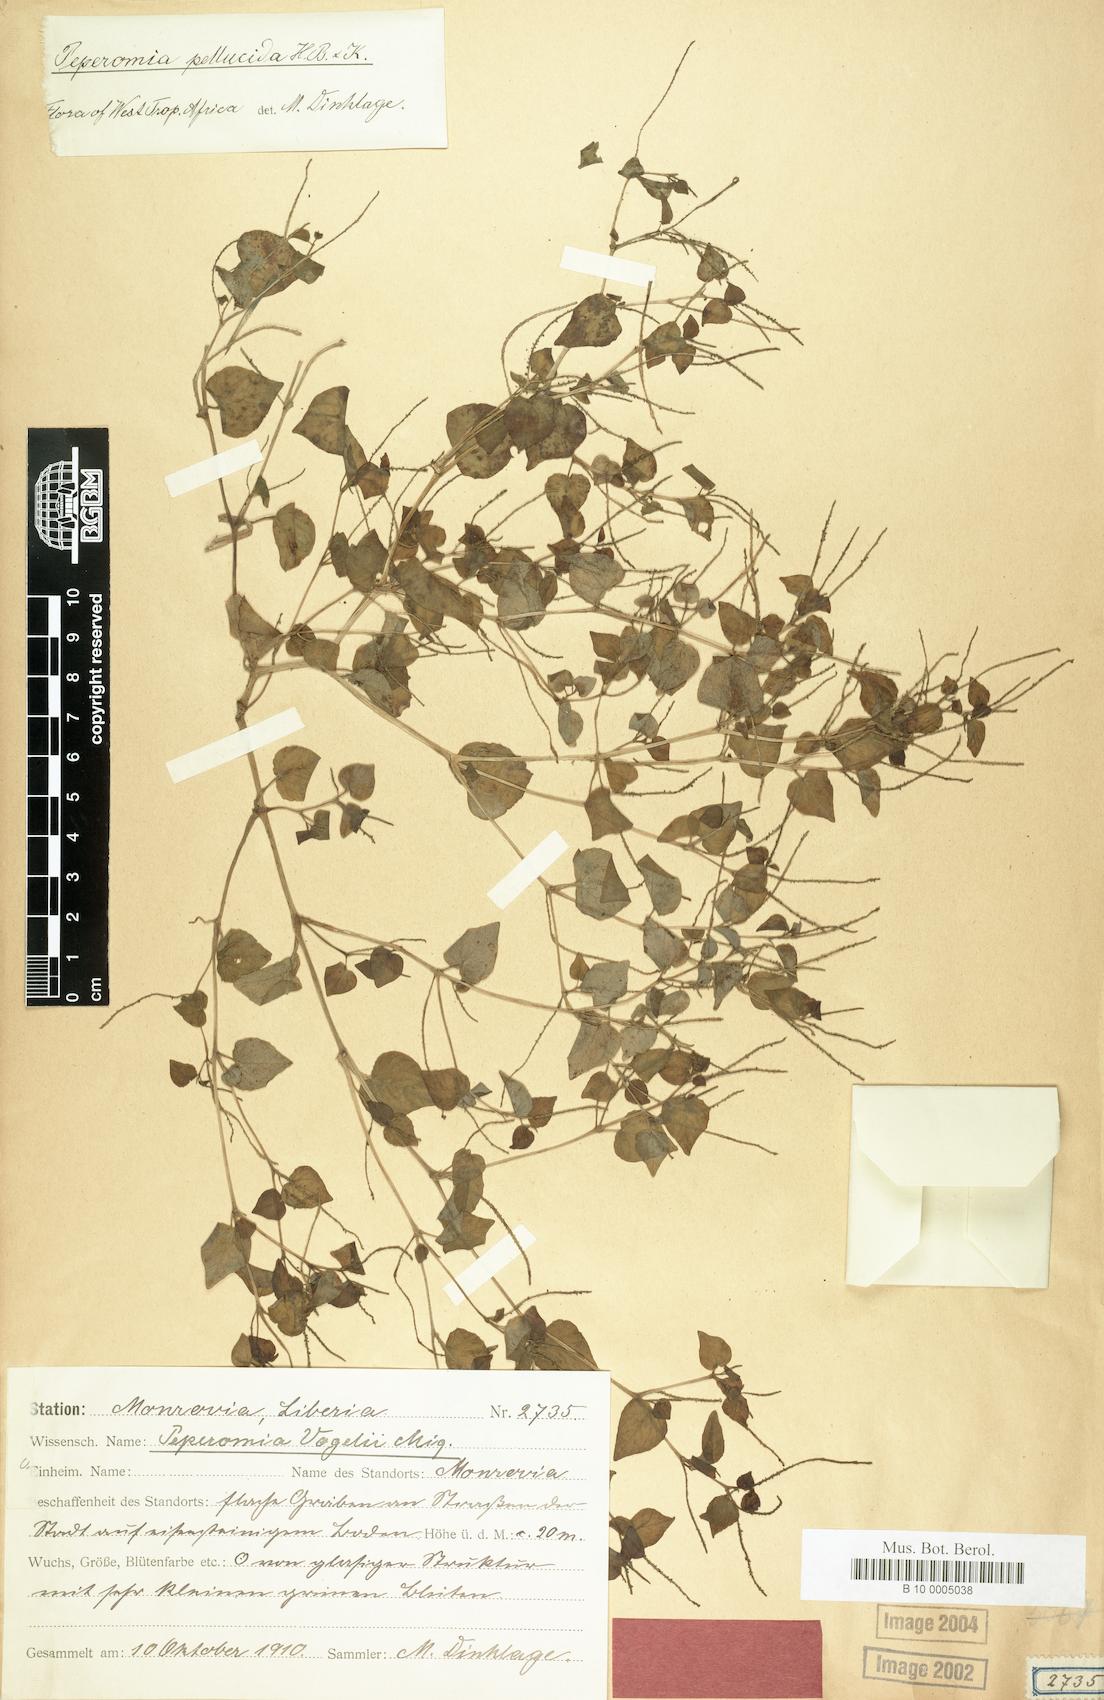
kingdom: Plantae
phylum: Tracheophyta
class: Magnoliopsida
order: Piperales
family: Piperaceae
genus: Peperomia
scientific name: Peperomia pellucida
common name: Man to man
